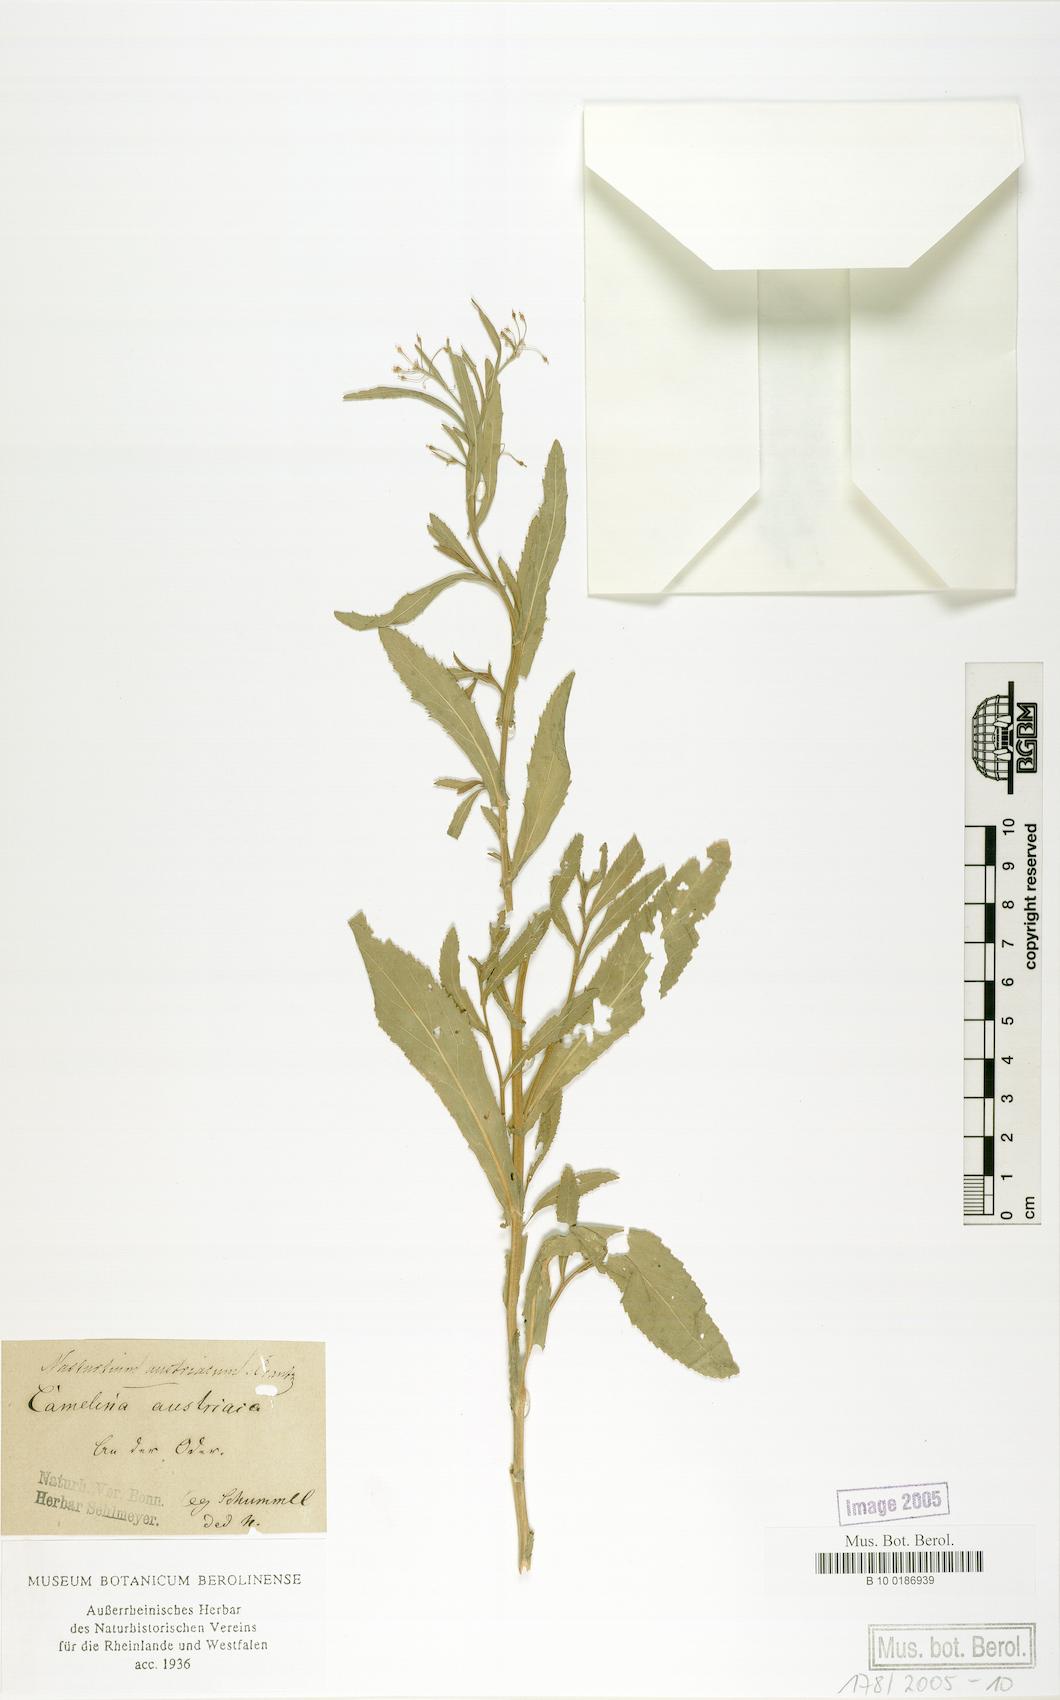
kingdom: Plantae
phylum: Tracheophyta
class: Magnoliopsida
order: Brassicales
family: Brassicaceae
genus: Rorippa
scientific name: Rorippa austriaca
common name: Austrian yellow-cress
